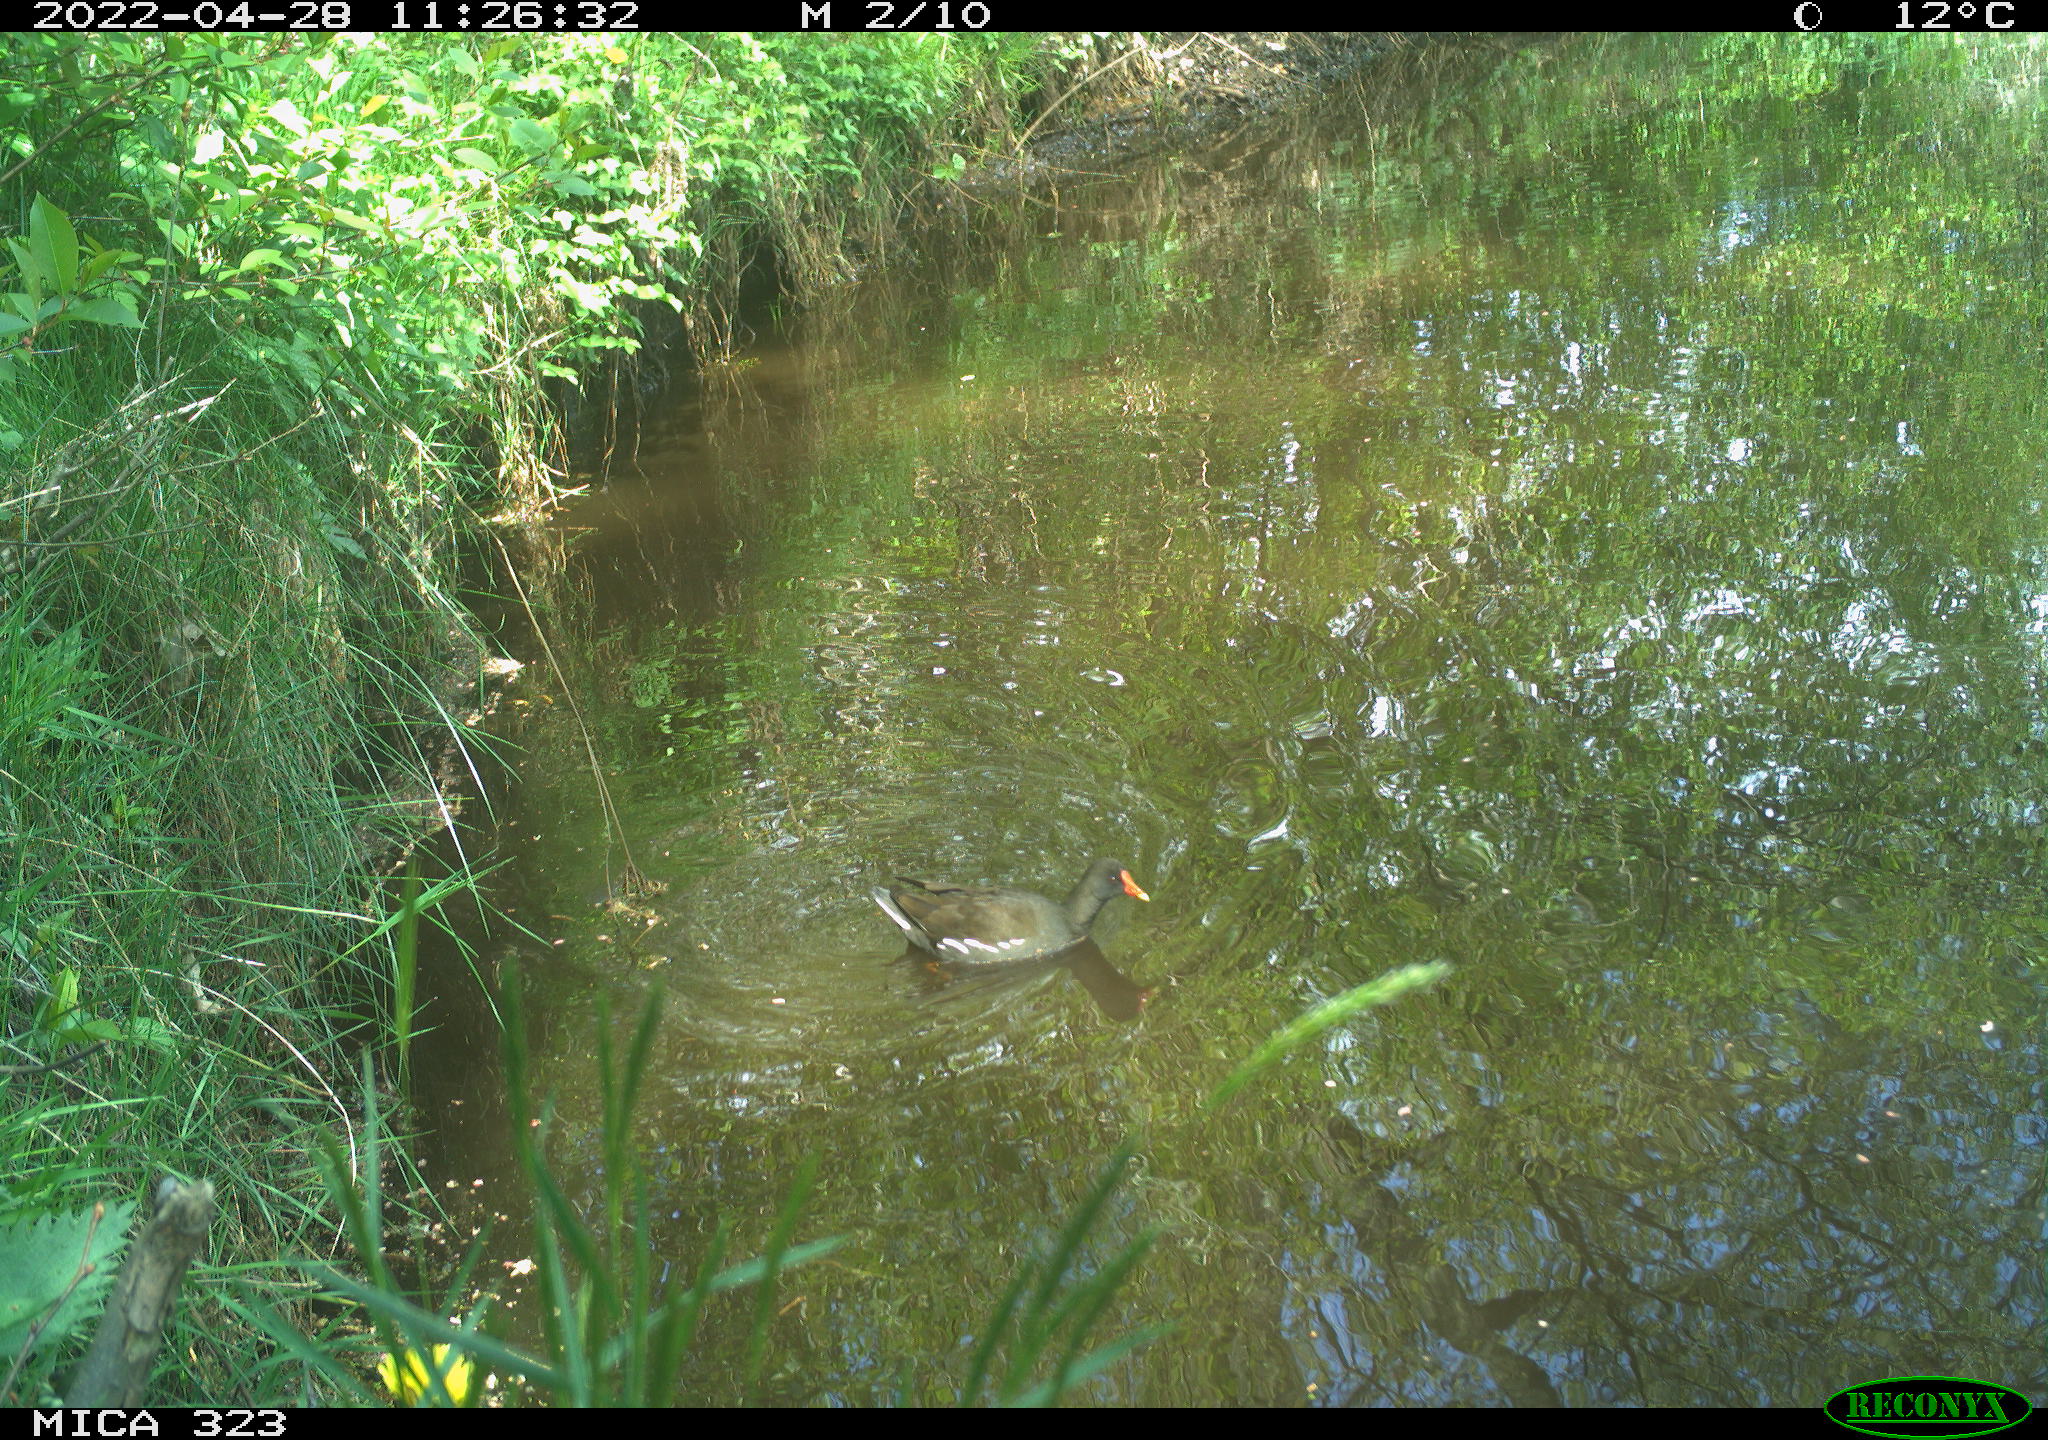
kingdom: Animalia
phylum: Chordata
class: Aves
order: Gruiformes
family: Rallidae
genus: Gallinula
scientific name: Gallinula chloropus
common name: Common moorhen
